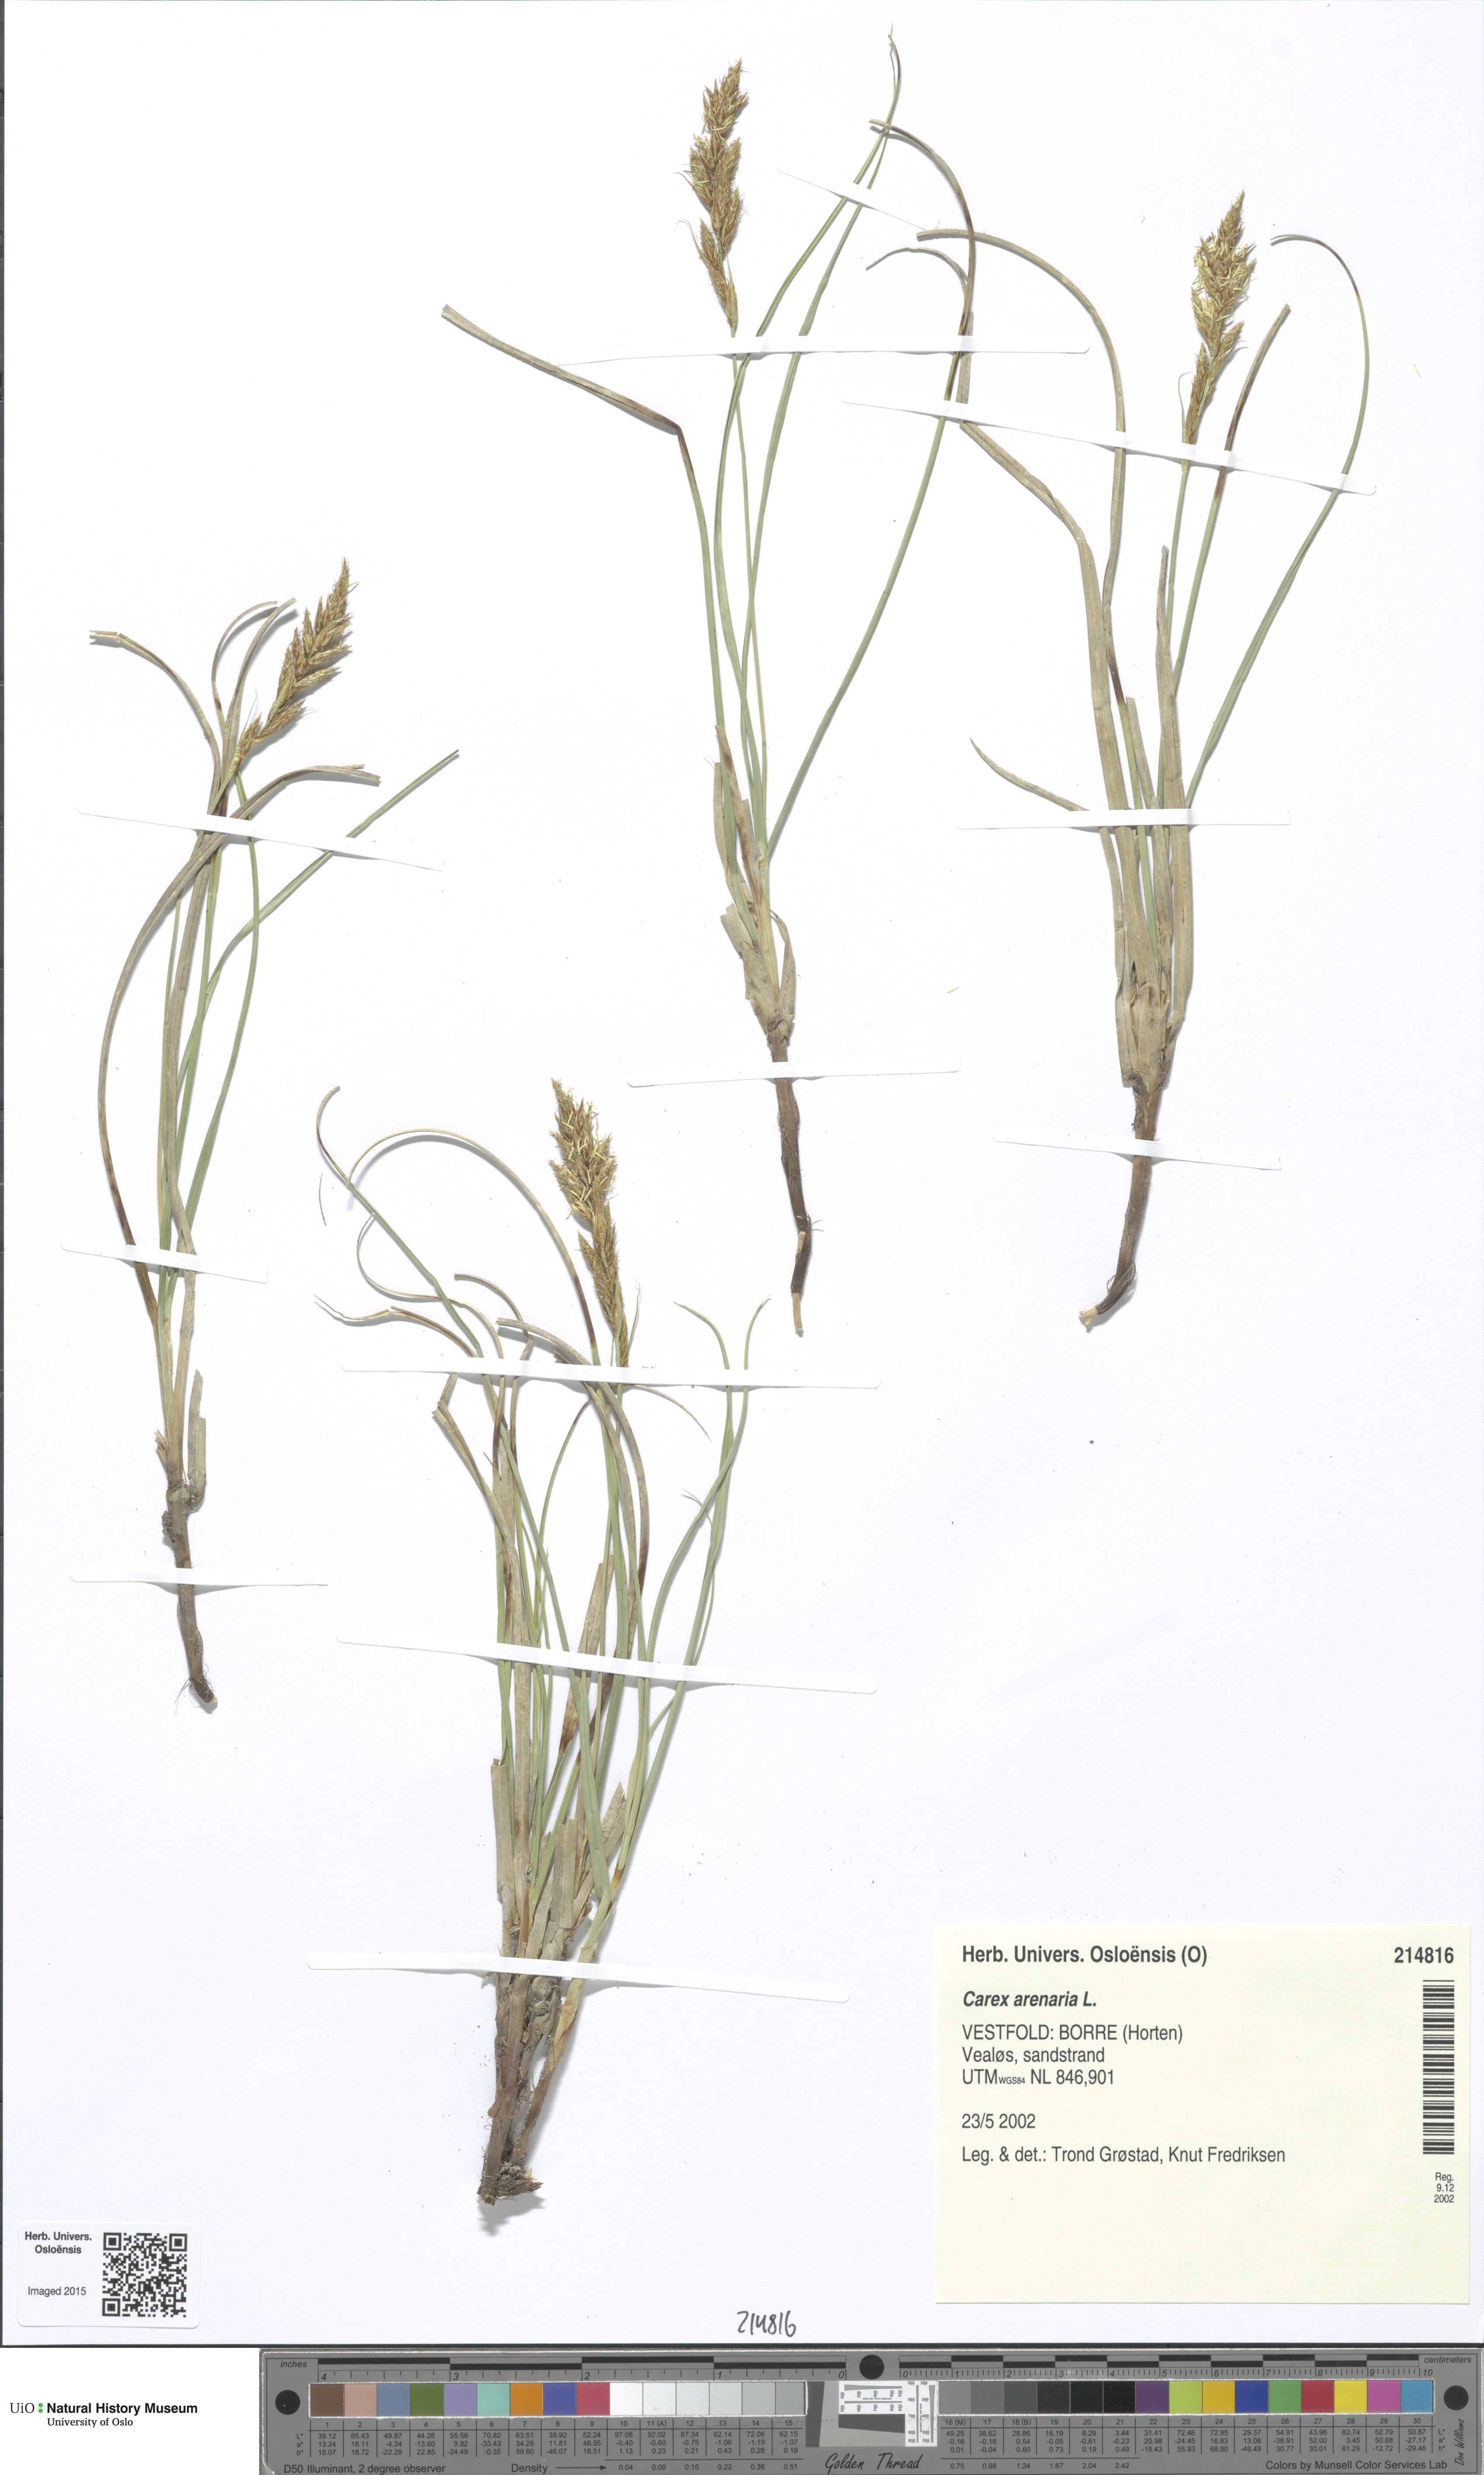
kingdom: Plantae
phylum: Tracheophyta
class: Liliopsida
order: Poales
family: Cyperaceae
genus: Carex
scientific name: Carex arenaria
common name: Sand sedge
